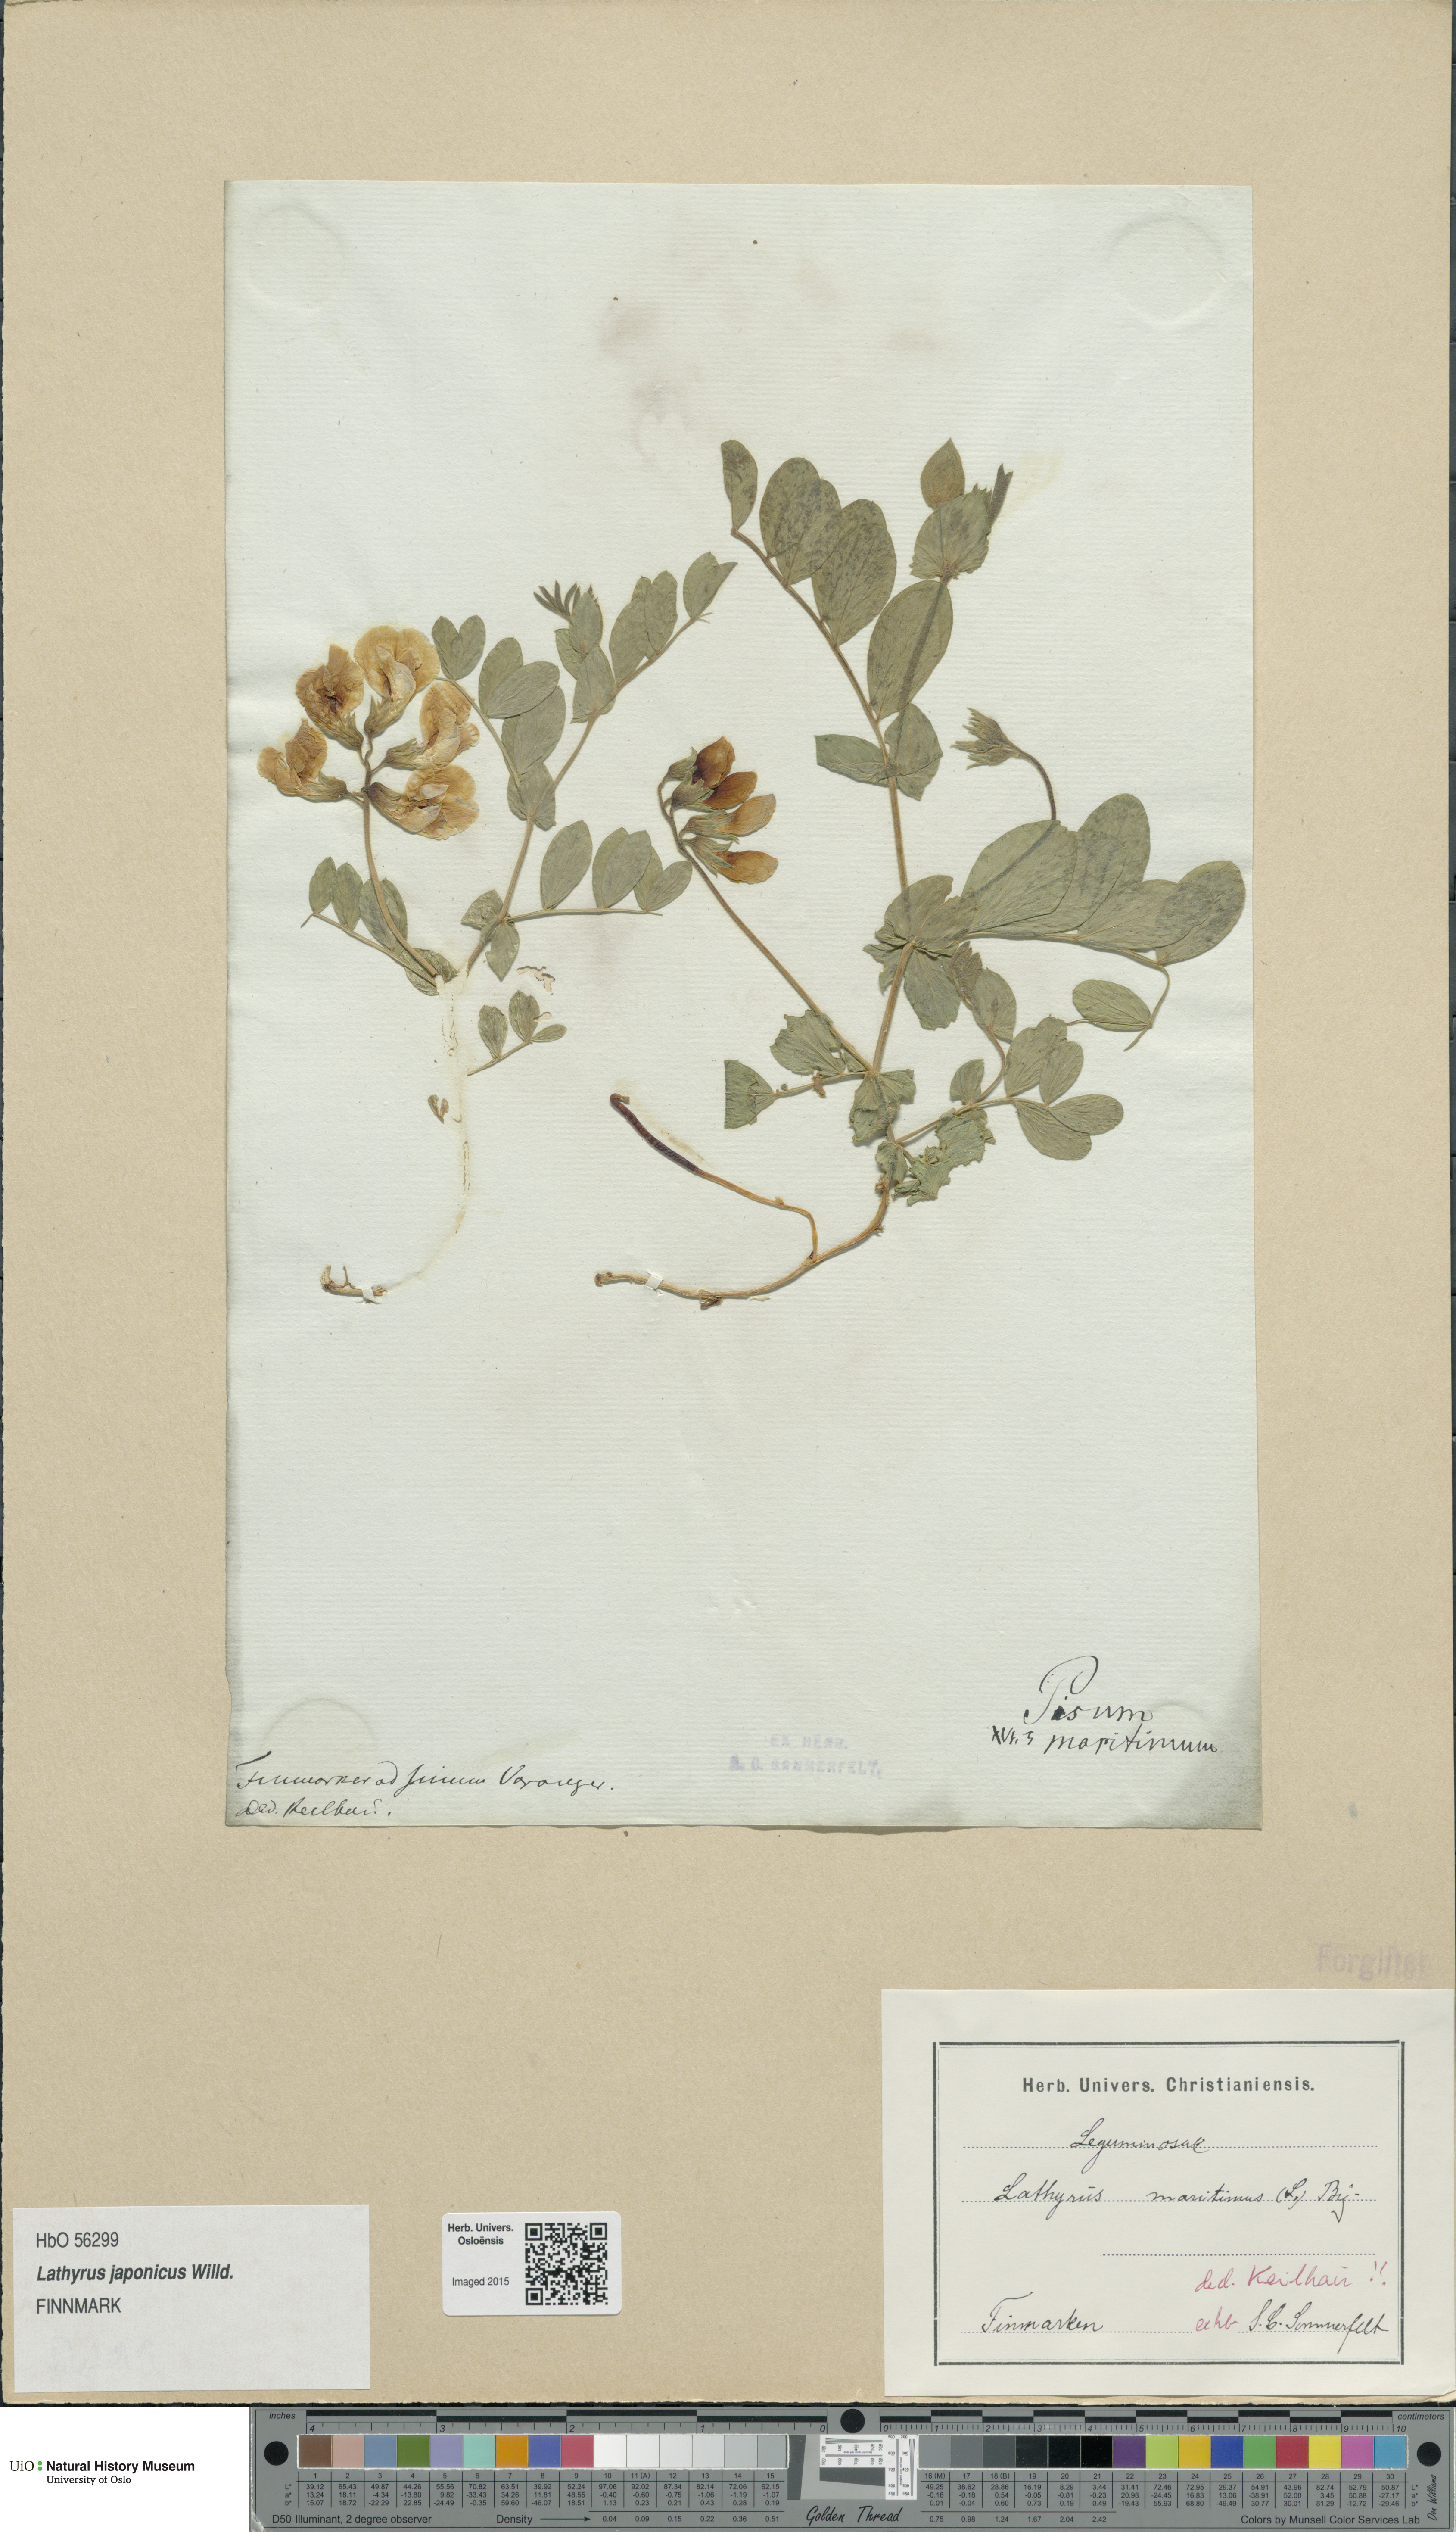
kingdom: Plantae
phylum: Tracheophyta
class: Magnoliopsida
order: Fabales
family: Fabaceae
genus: Lathyrus
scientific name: Lathyrus
